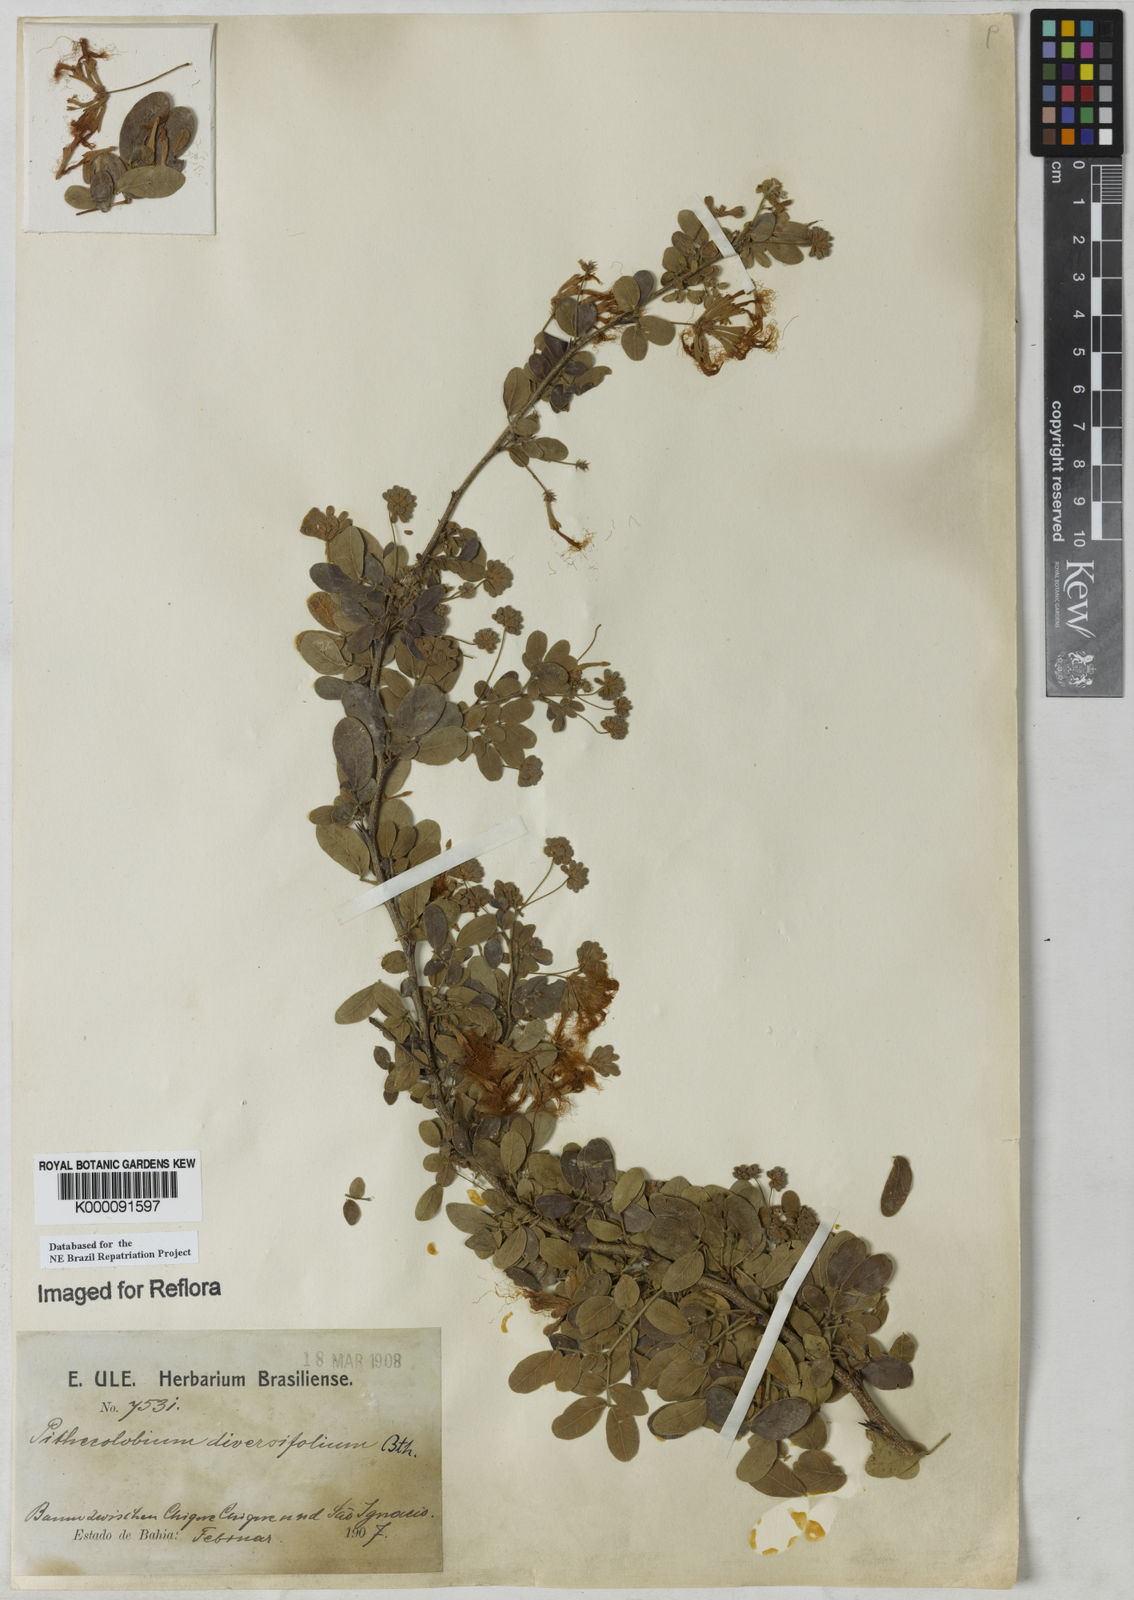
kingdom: Plantae
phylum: Tracheophyta
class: Magnoliopsida
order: Fabales
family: Fabaceae
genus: Pithecellobium
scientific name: Pithecellobium diversifolium
